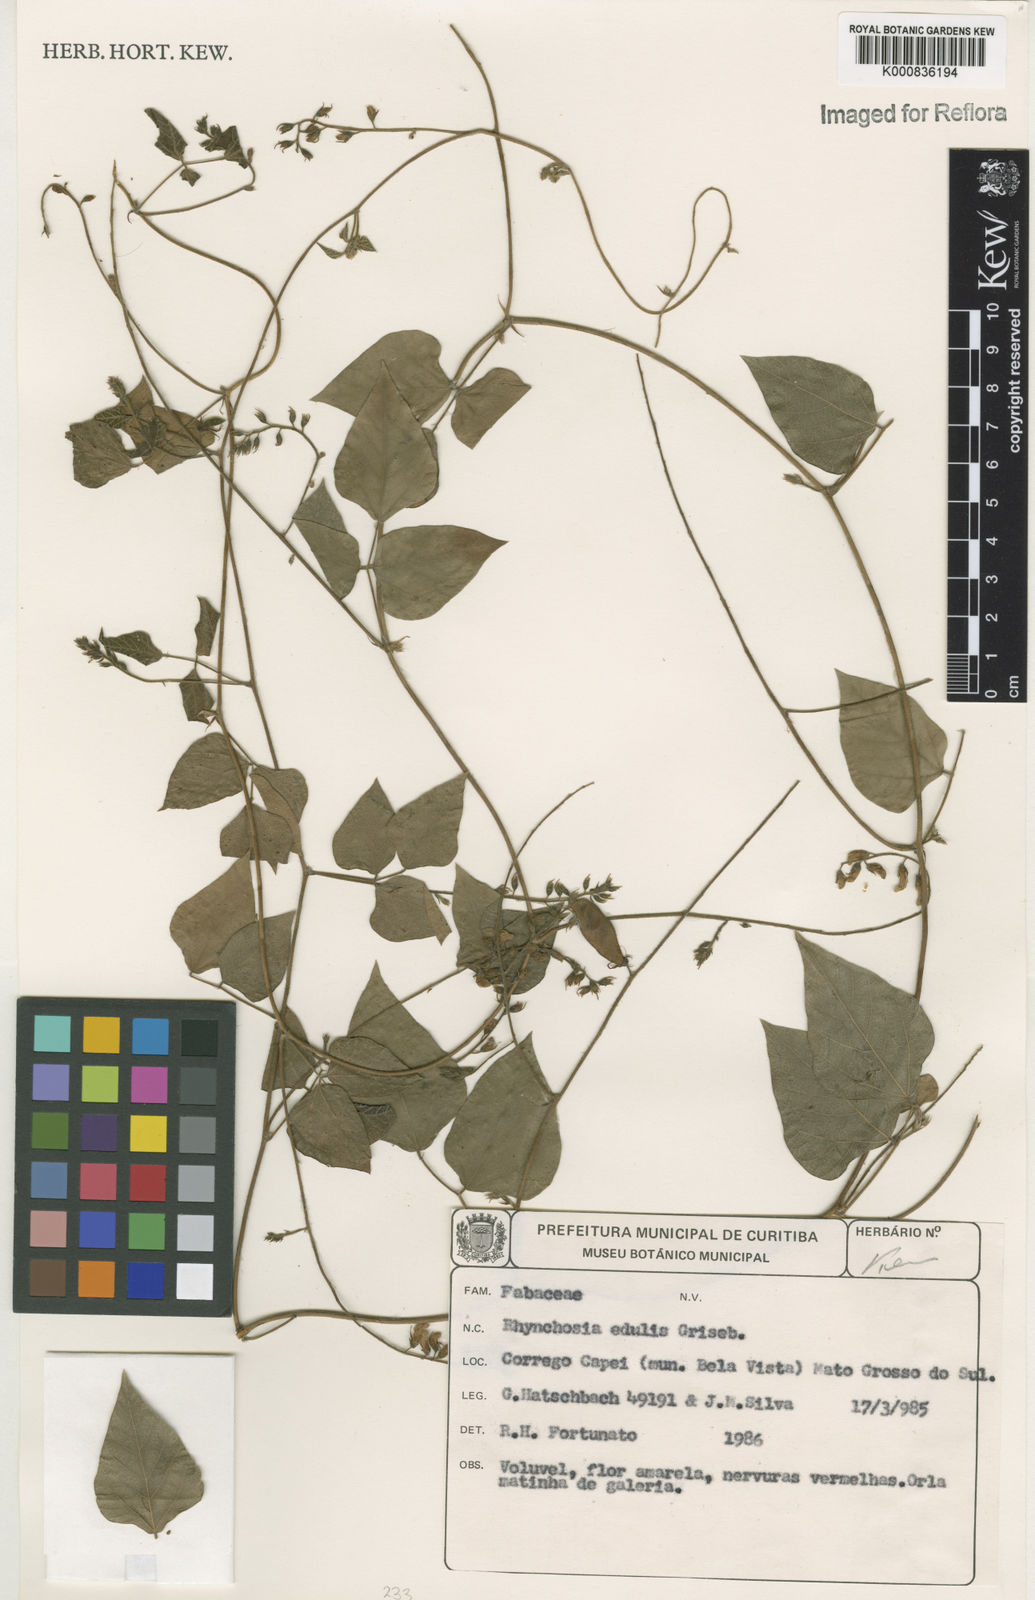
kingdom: Plantae
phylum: Tracheophyta
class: Magnoliopsida
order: Fabales
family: Fabaceae
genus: Rhynchosia
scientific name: Rhynchosia edulis
